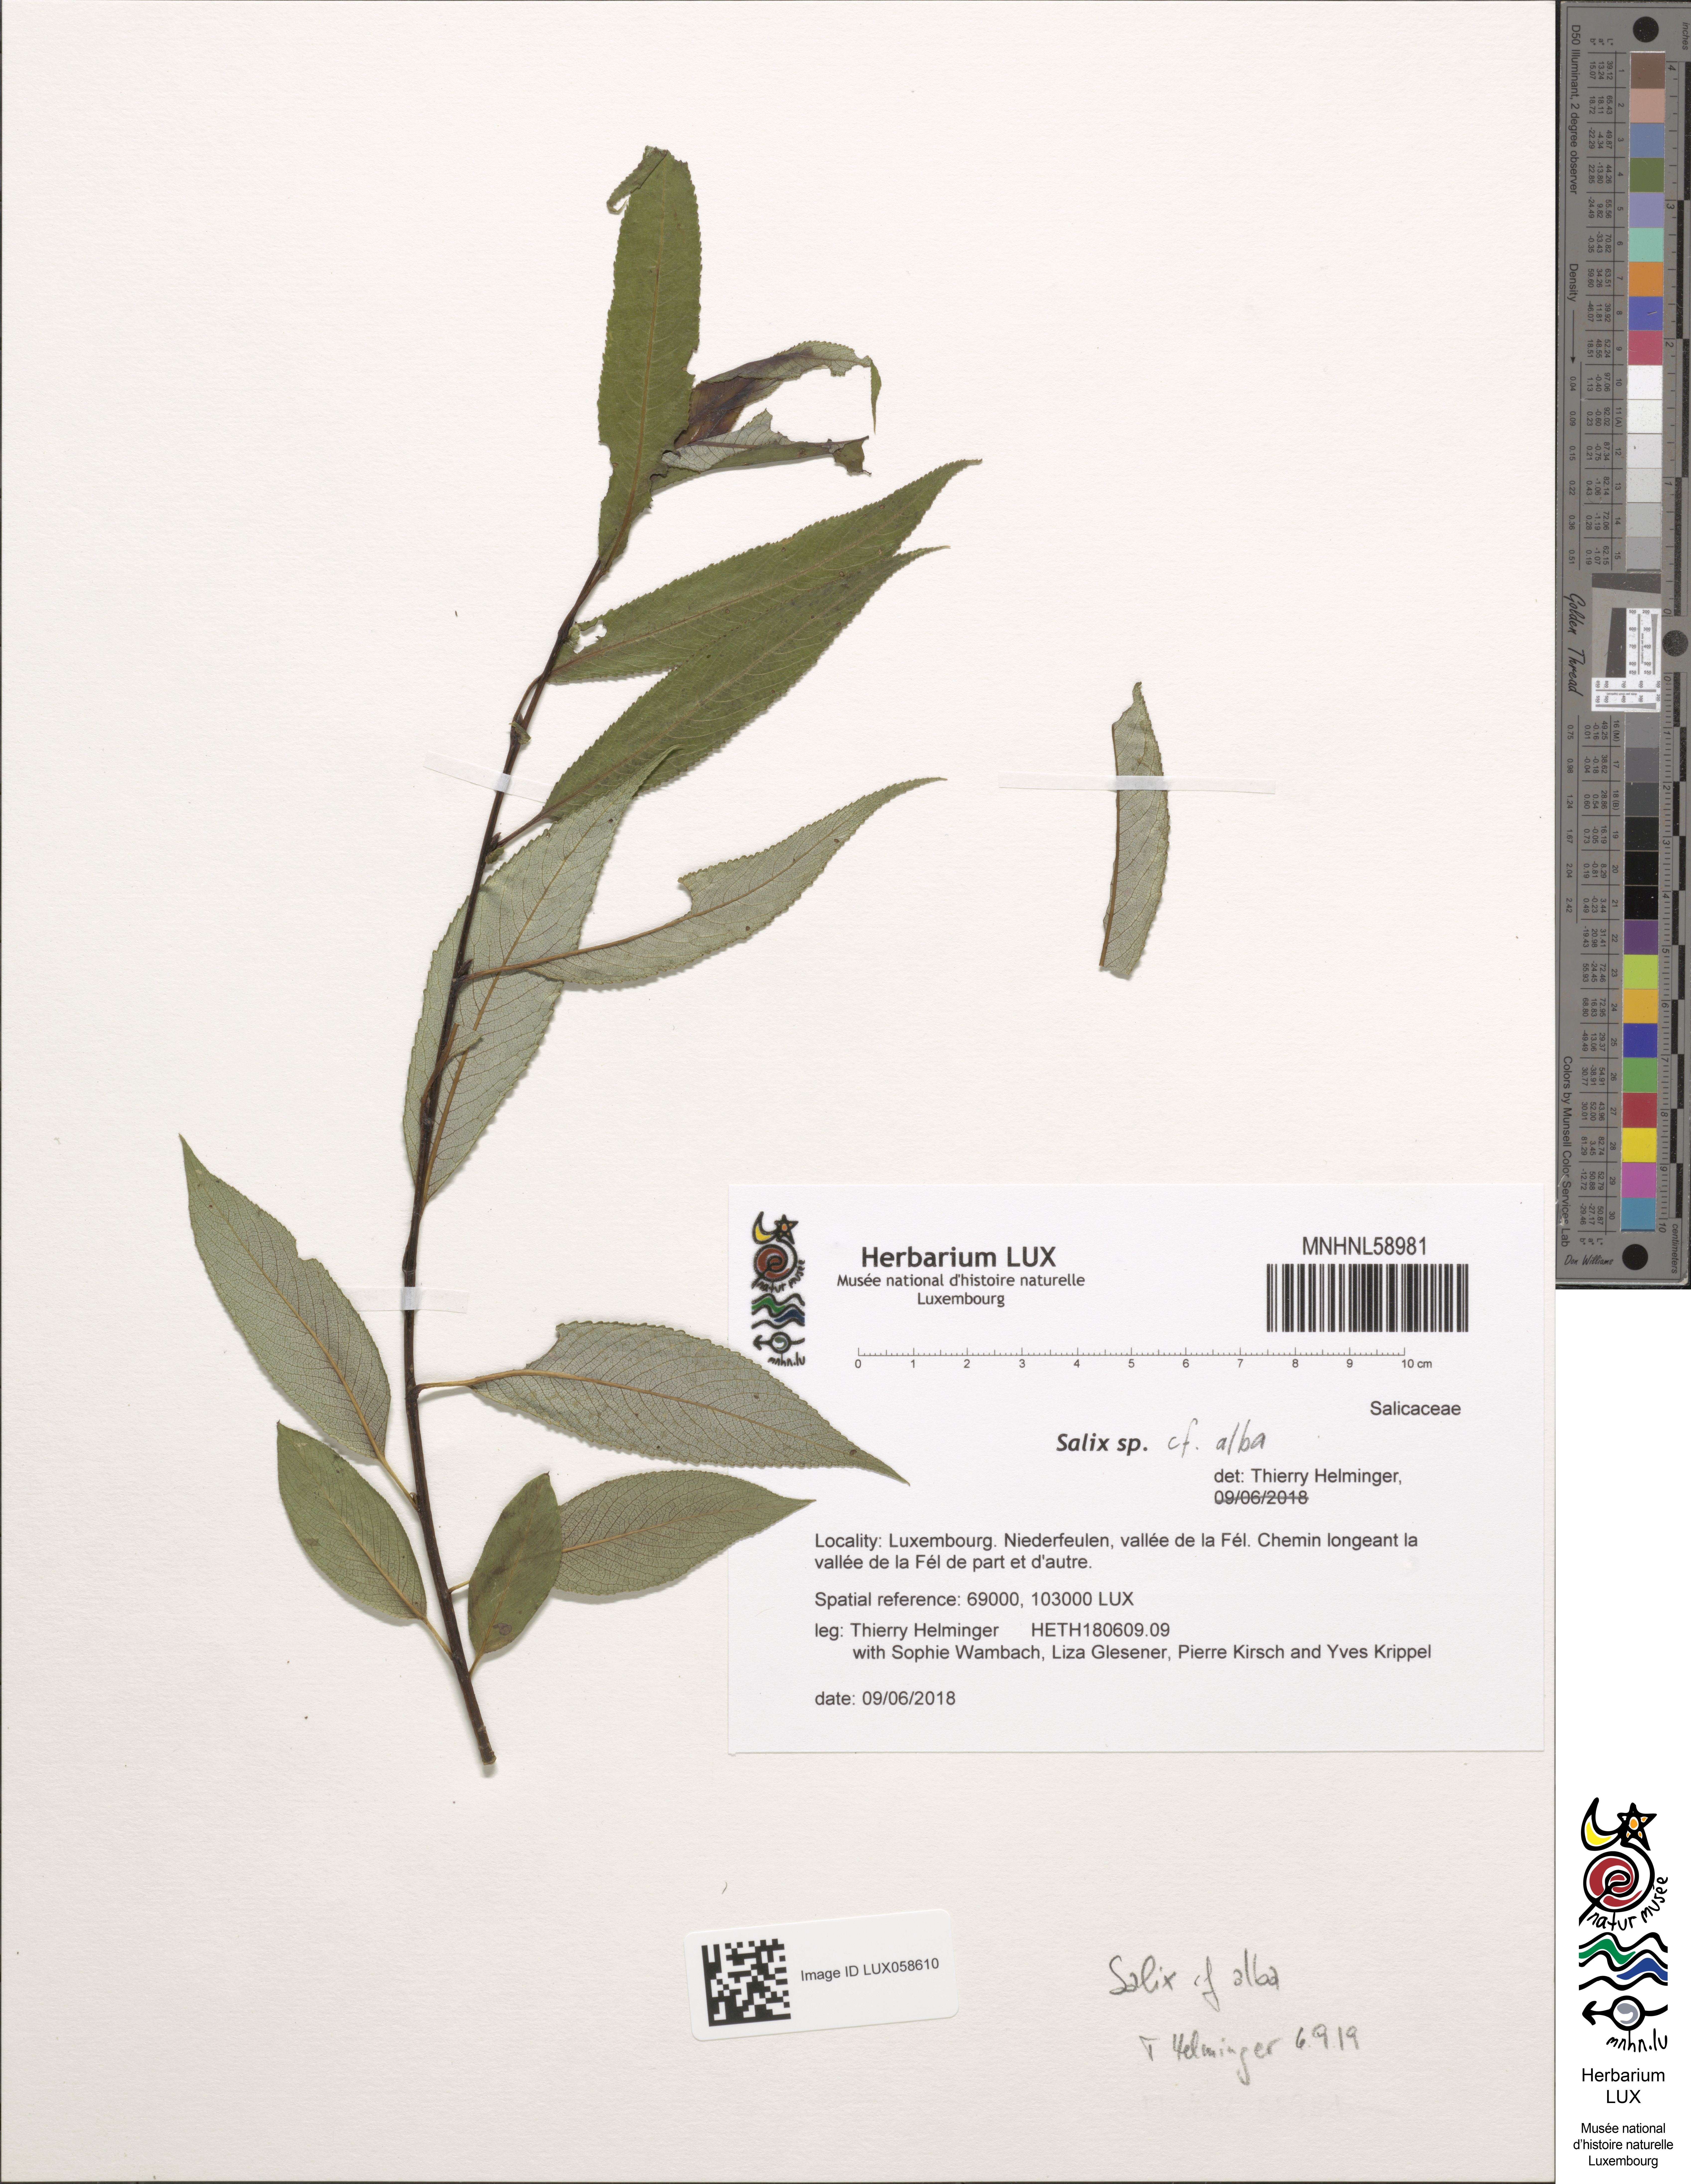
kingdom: Plantae
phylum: Tracheophyta
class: Magnoliopsida
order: Malpighiales
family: Salicaceae
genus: Salix
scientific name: Salix alba
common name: White willow
